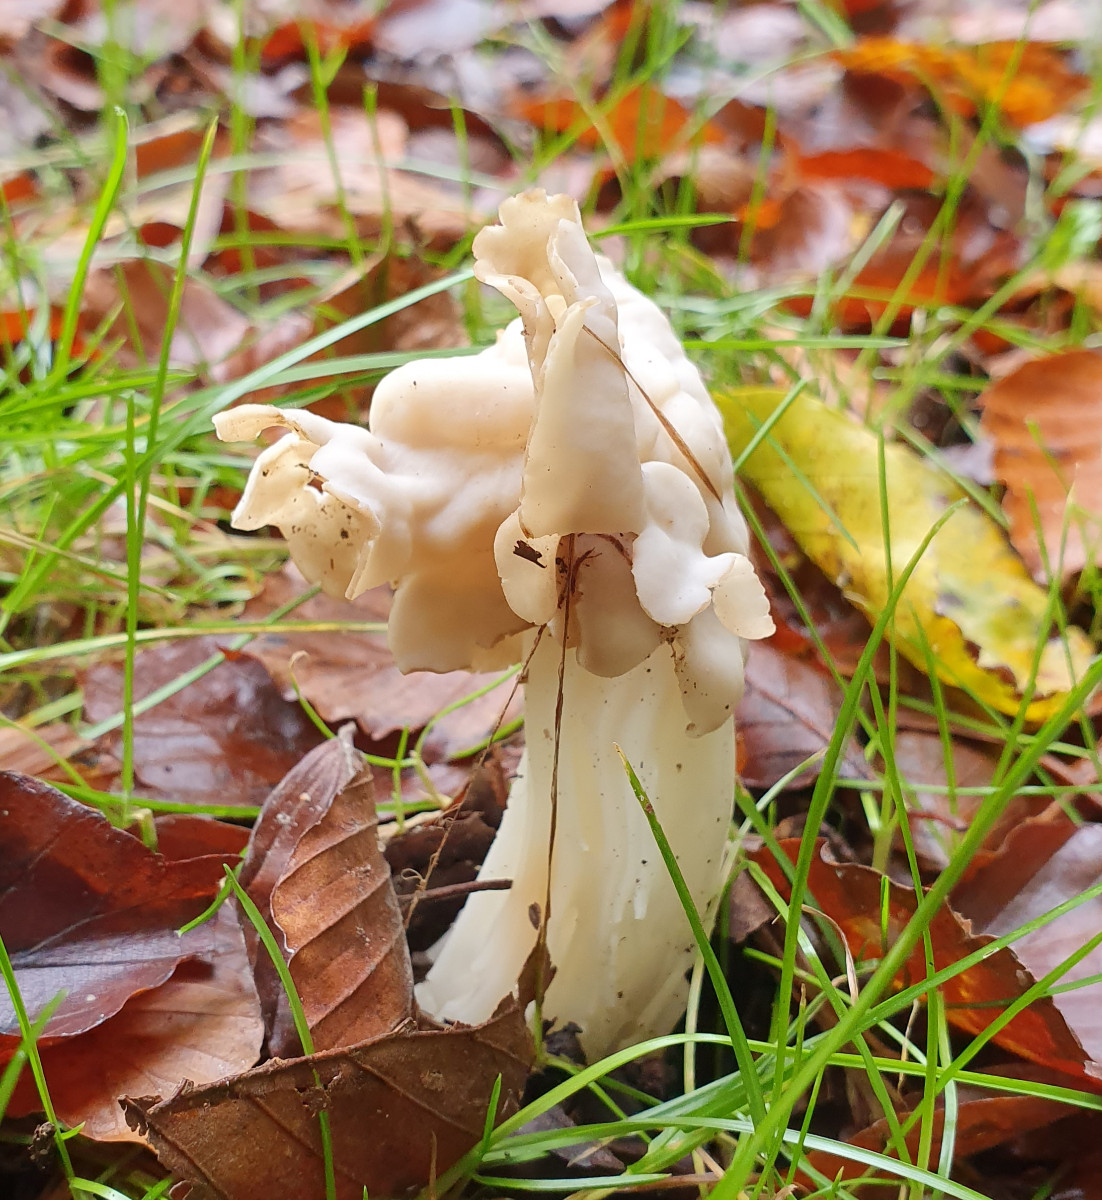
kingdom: Fungi
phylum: Ascomycota
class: Pezizomycetes
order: Pezizales
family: Helvellaceae
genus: Helvella
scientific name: Helvella crispa
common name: kruset foldhat
